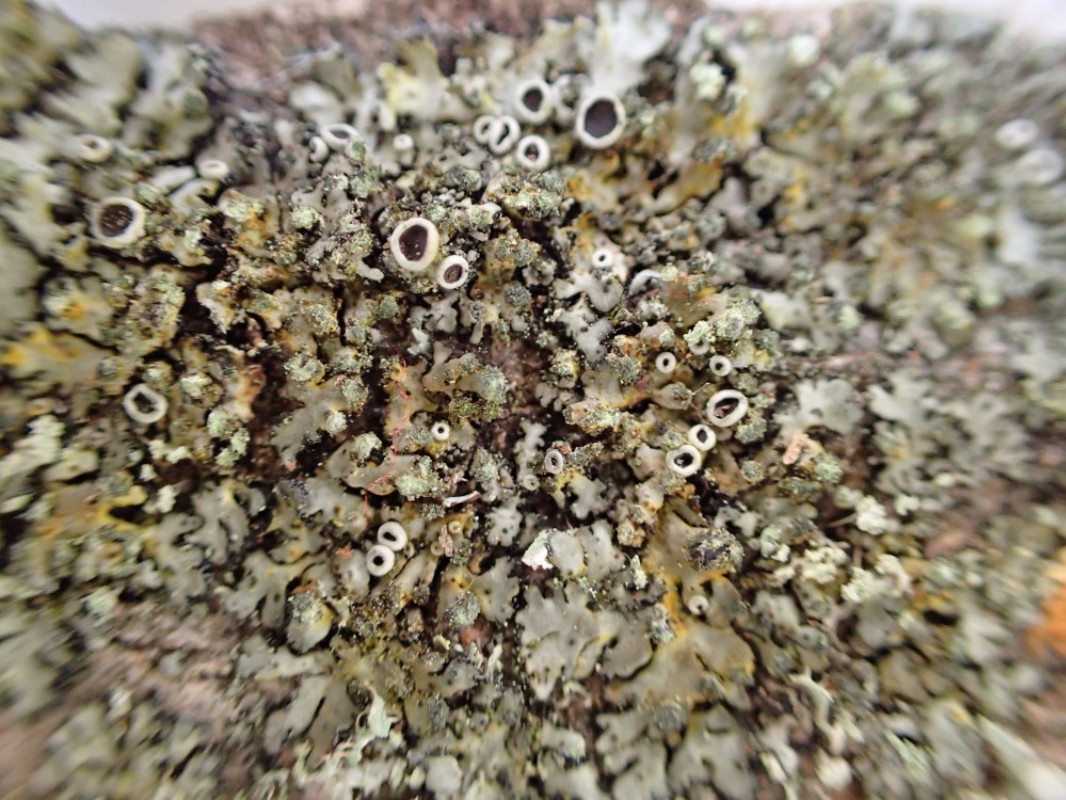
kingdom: Fungi
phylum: Ascomycota
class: Lecanoromycetes
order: Caliciales
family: Physciaceae
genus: Phaeophyscia
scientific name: Phaeophyscia orbicularis
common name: grågrøn rosetlav
